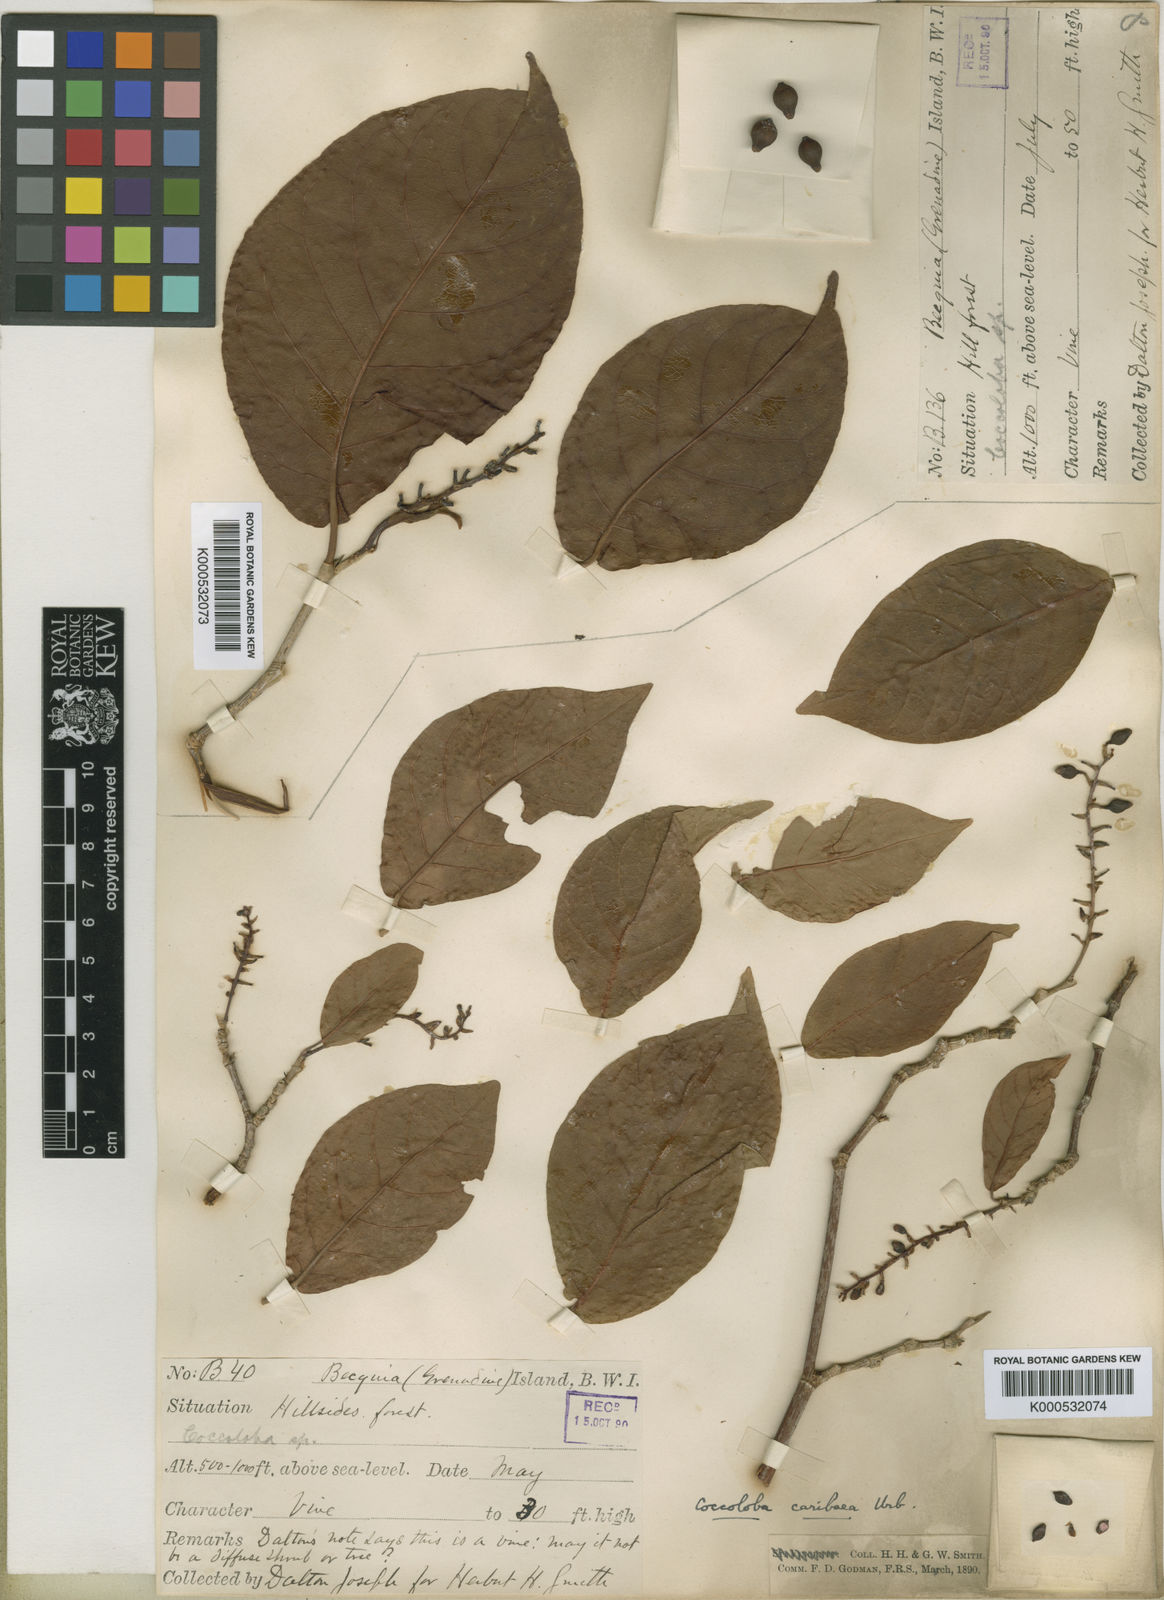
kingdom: Plantae
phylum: Tracheophyta
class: Magnoliopsida
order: Caryophyllales
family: Polygonaceae
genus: Coccoloba
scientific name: Coccoloba coronata
